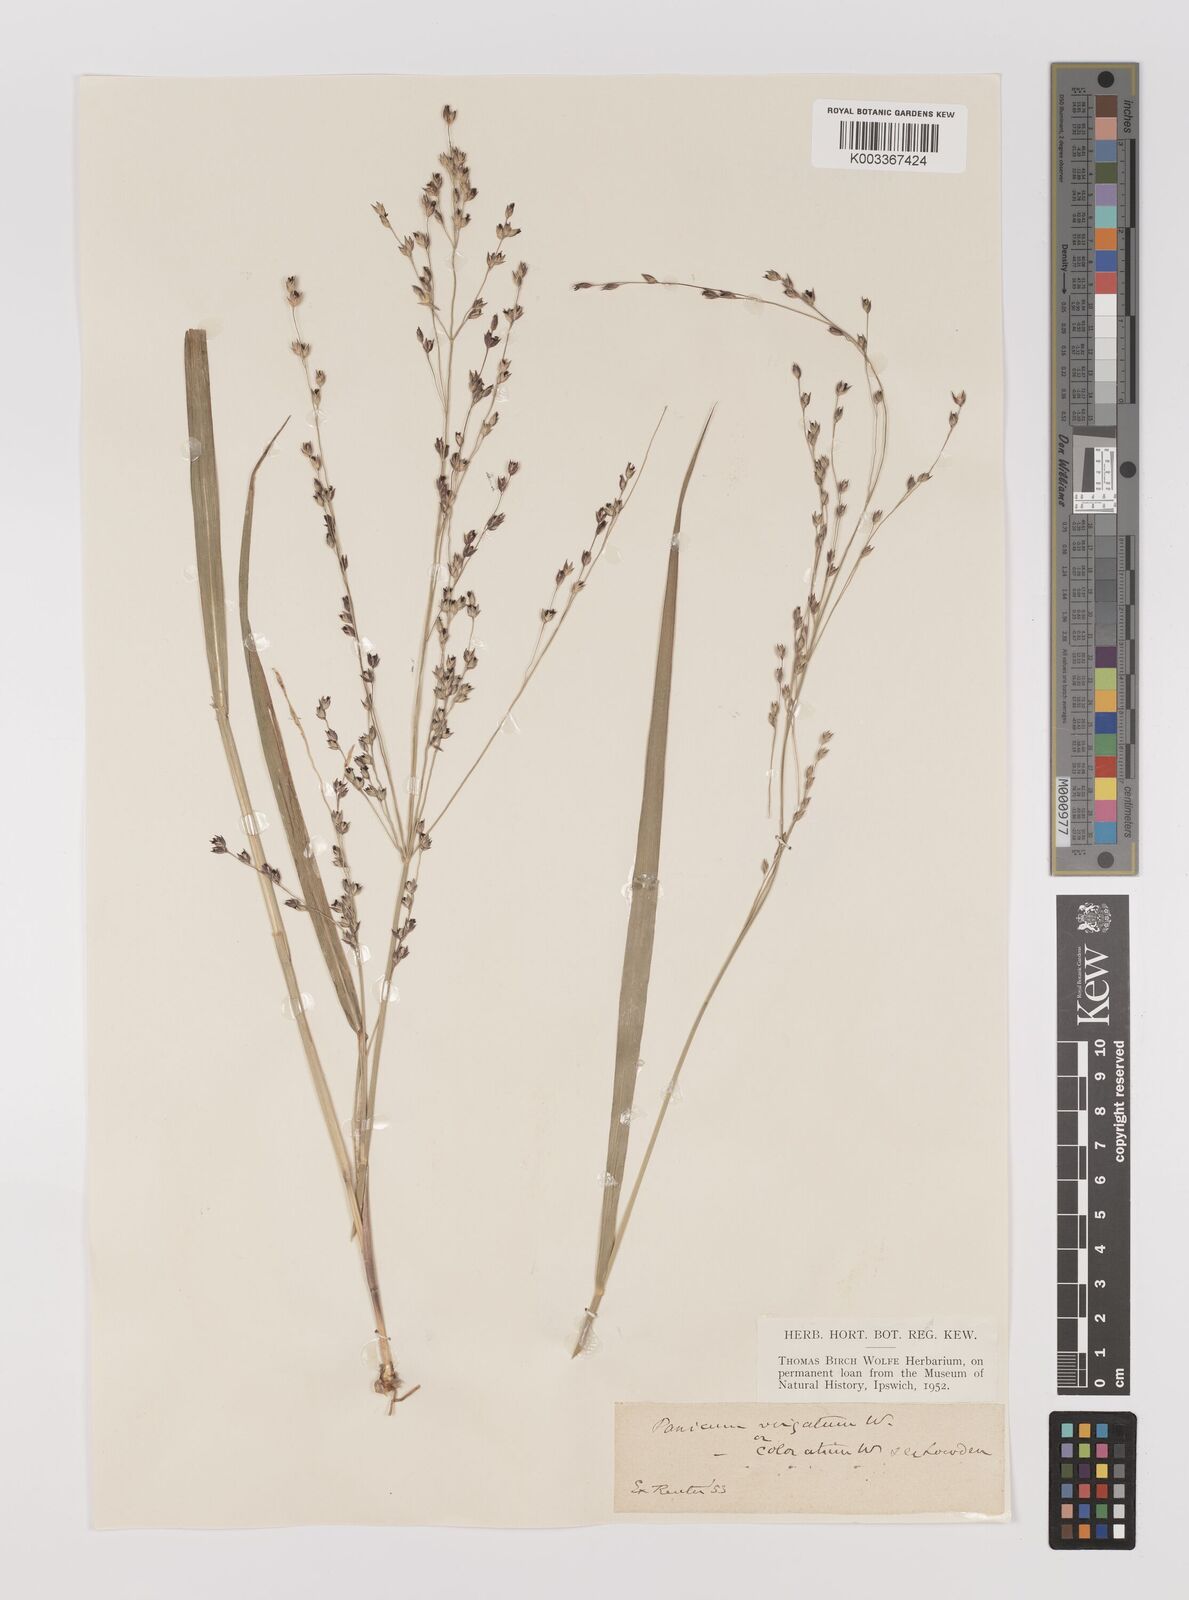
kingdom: Plantae
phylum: Tracheophyta
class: Liliopsida
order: Poales
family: Poaceae
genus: Panicum
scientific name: Panicum
